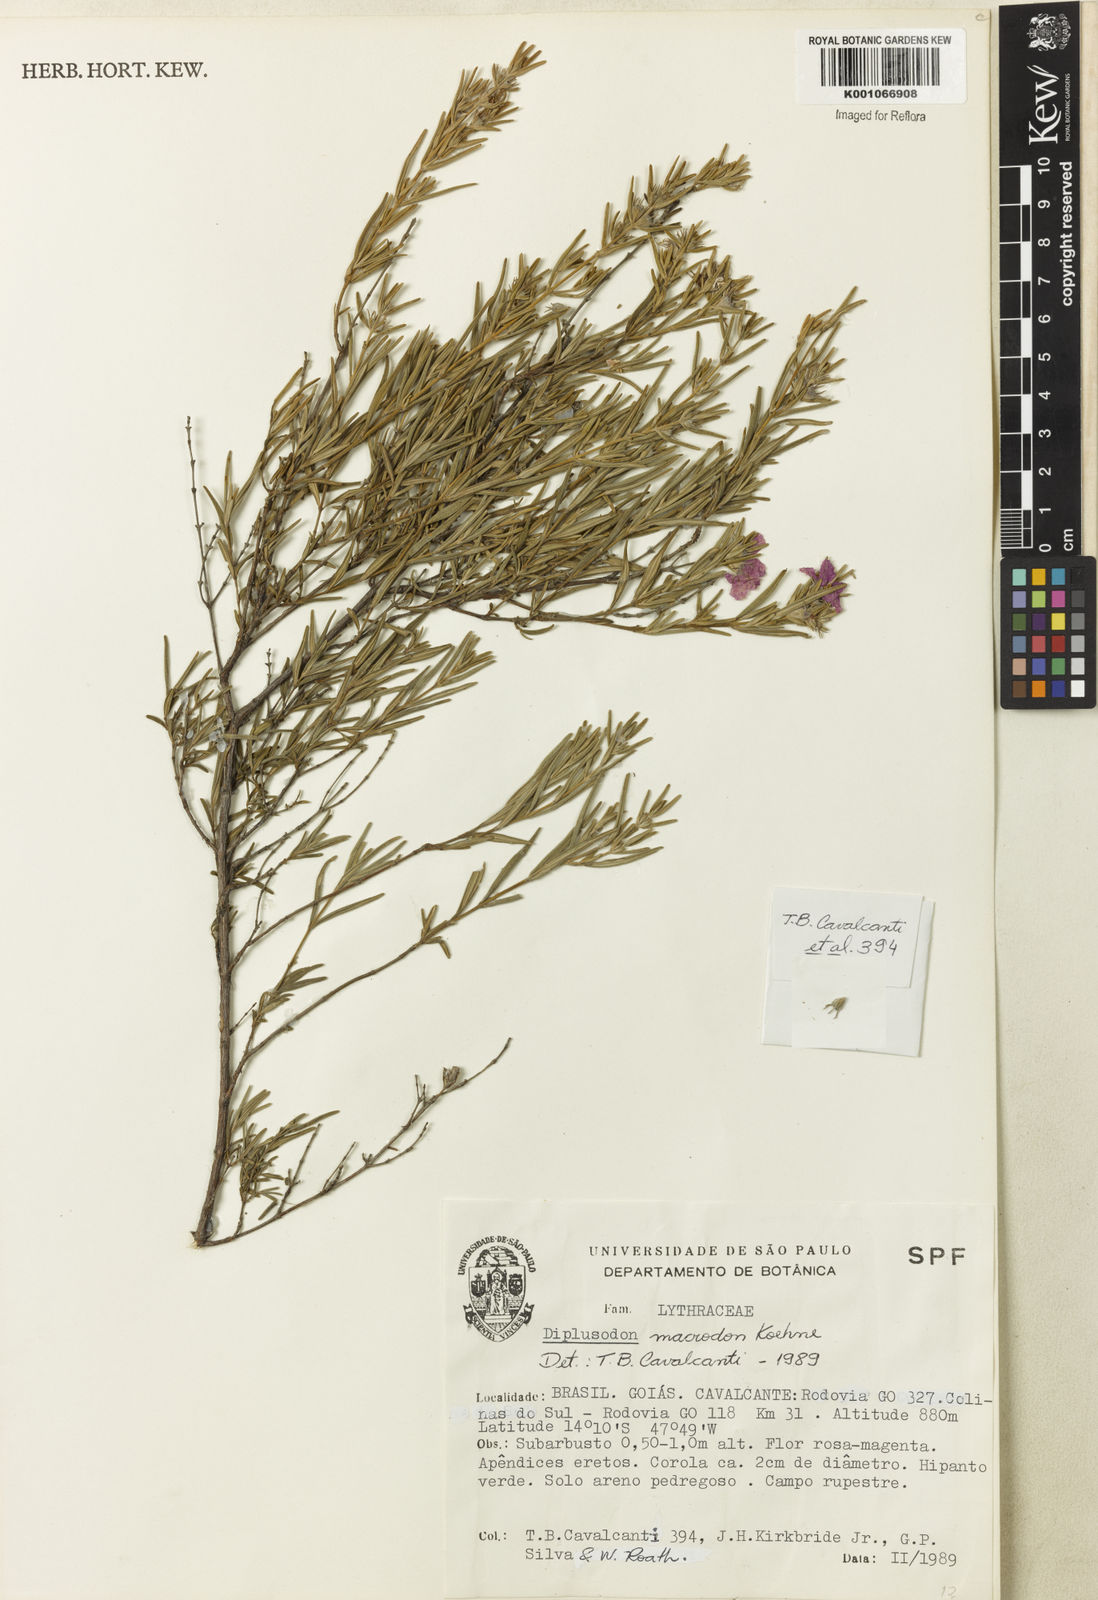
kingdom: Plantae
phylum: Tracheophyta
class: Magnoliopsida
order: Myrtales
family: Lythraceae
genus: Diplusodon
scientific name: Diplusodon macrodon
